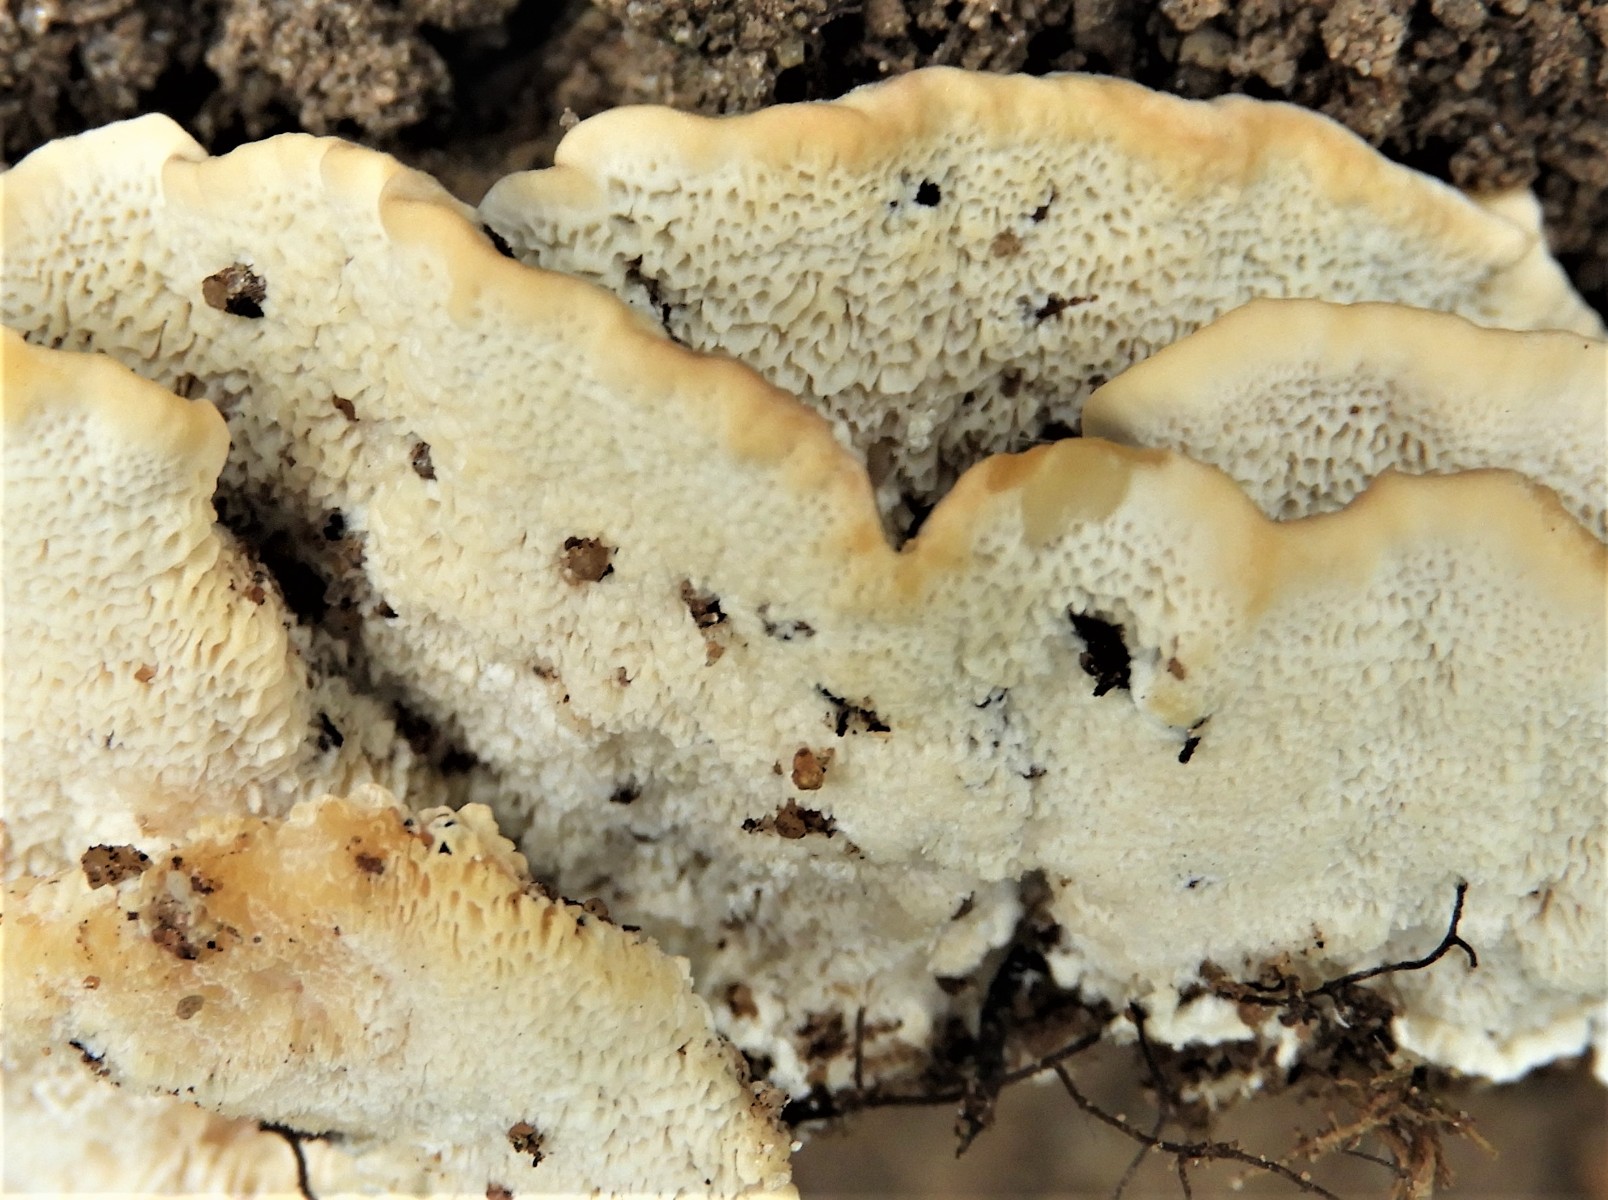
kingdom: Fungi
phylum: Basidiomycota
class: Agaricomycetes
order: Polyporales
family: Polyporaceae
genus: Trametes
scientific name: Trametes versicolor
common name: broget læderporesvamp
